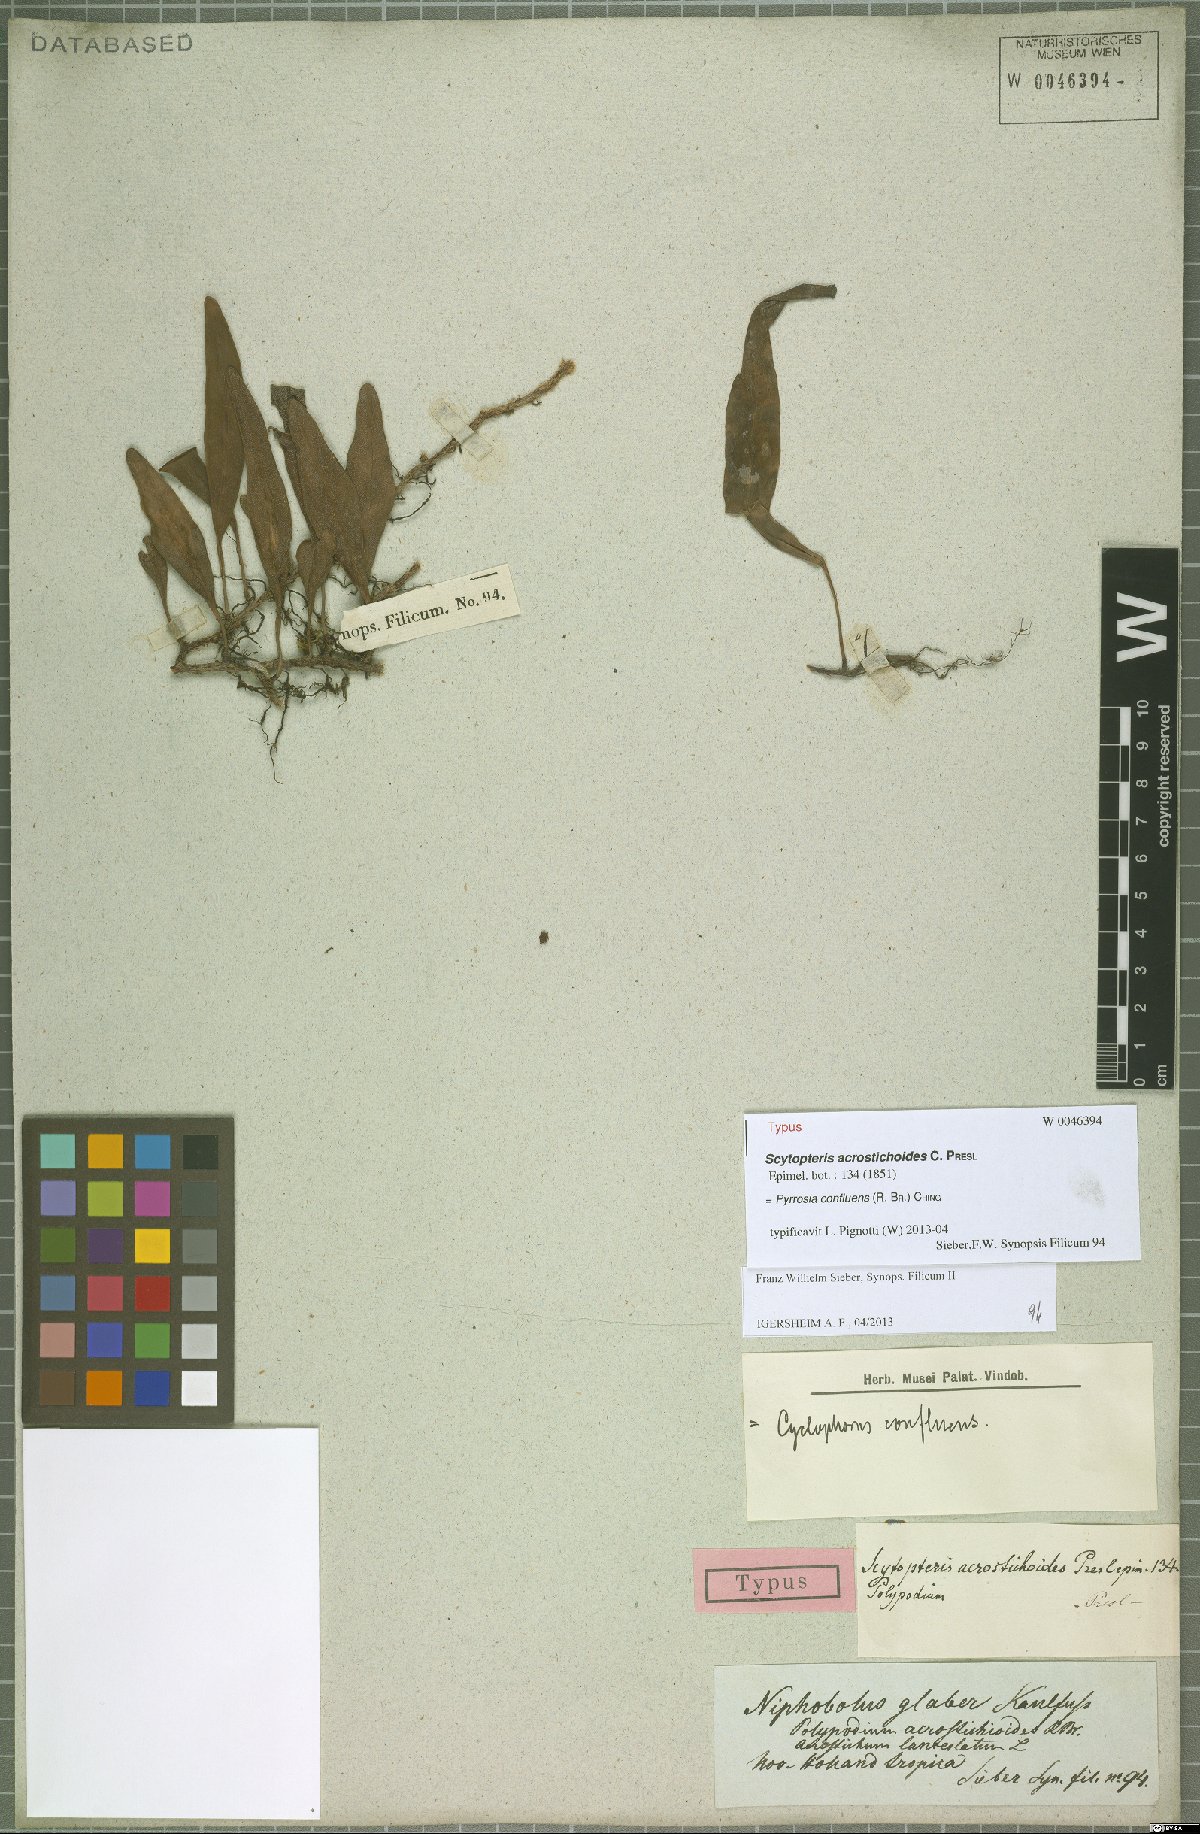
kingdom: Plantae
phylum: Tracheophyta
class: Polypodiopsida
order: Polypodiales
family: Polypodiaceae
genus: Pyrrosia
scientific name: Pyrrosia confluens
